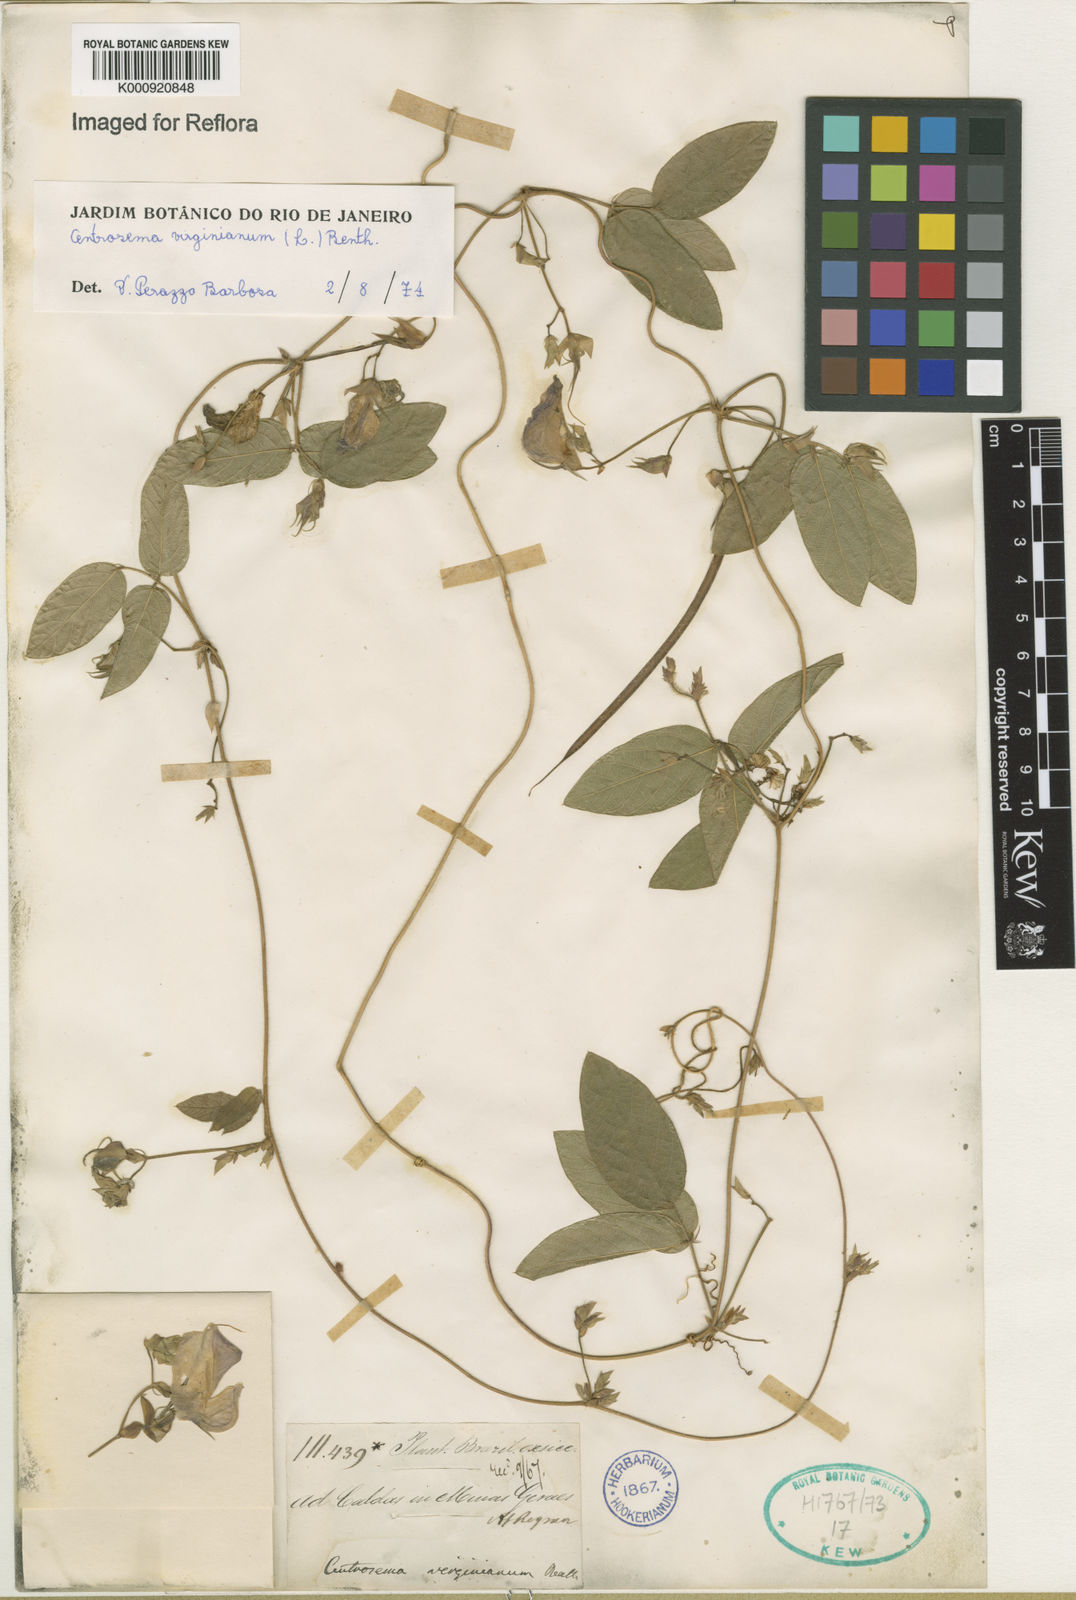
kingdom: Plantae
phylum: Tracheophyta
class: Magnoliopsida
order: Fabales
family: Fabaceae
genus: Centrosema
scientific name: Centrosema virginianum
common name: Butterfly-pea
